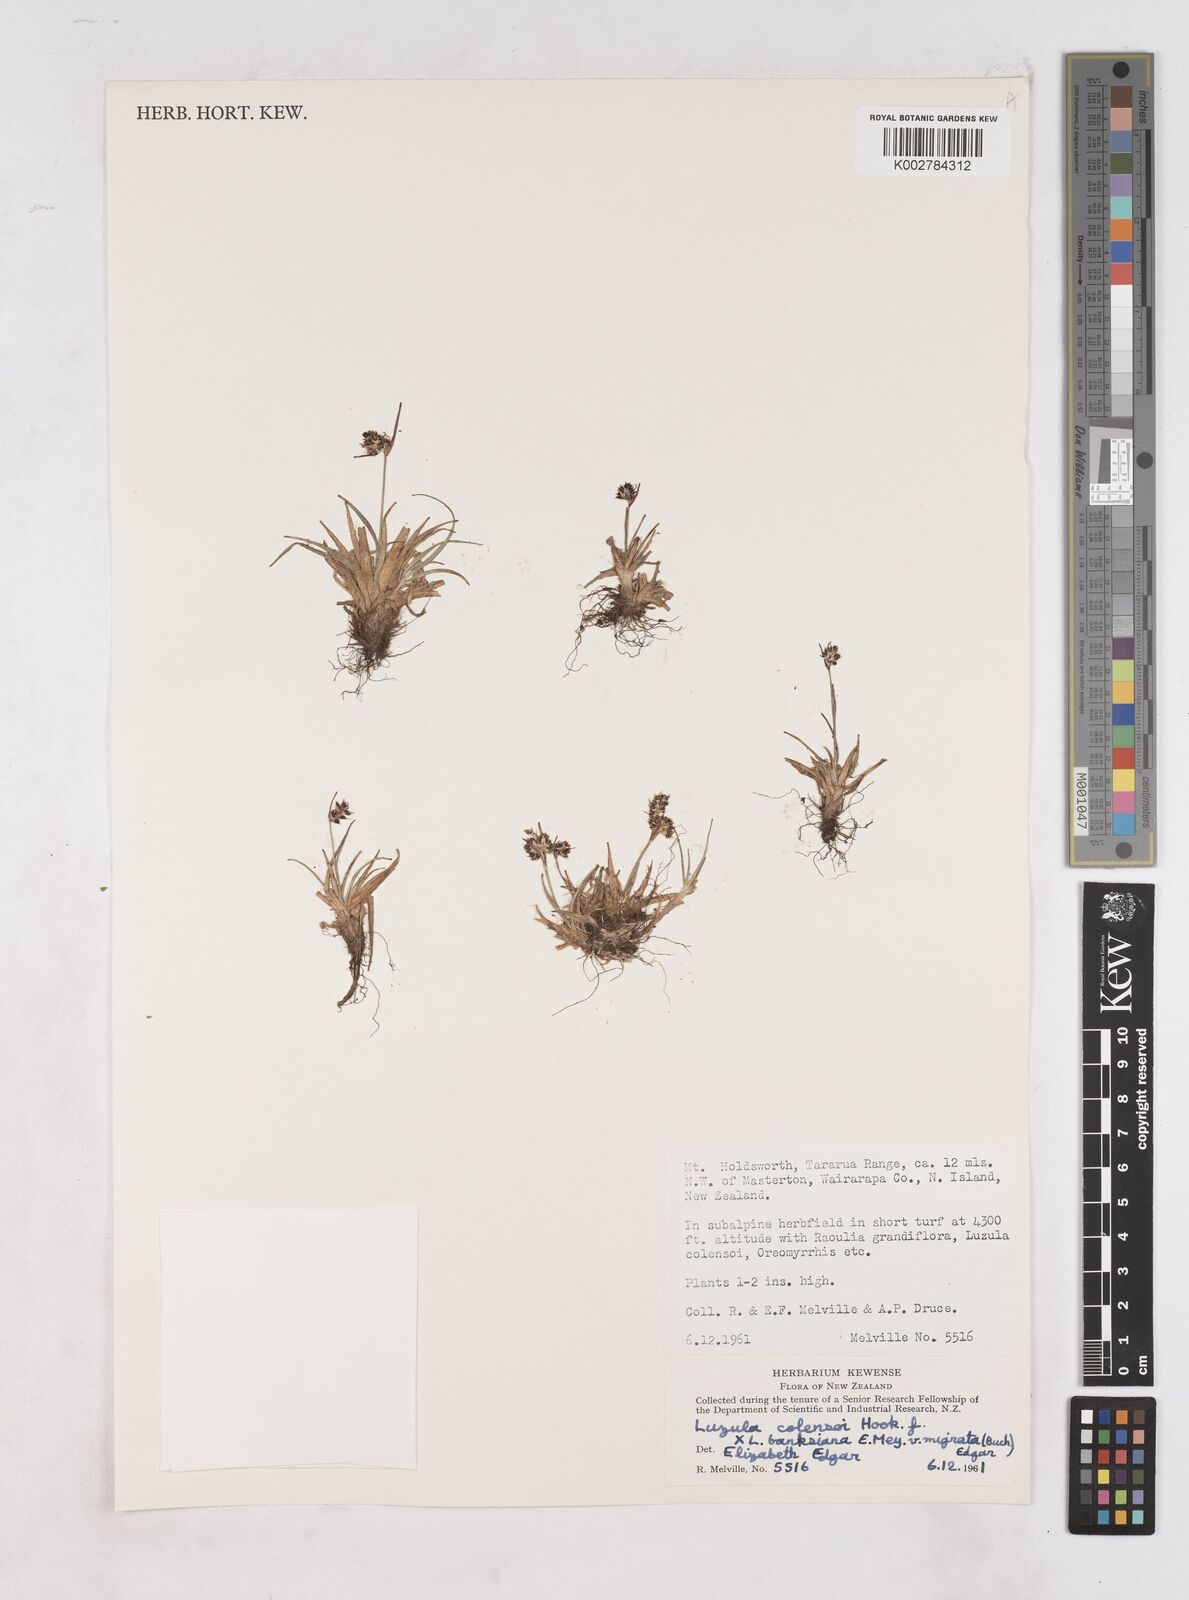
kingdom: Plantae
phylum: Tracheophyta
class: Liliopsida
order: Poales
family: Juncaceae
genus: Luzula
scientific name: Luzula colensoi
